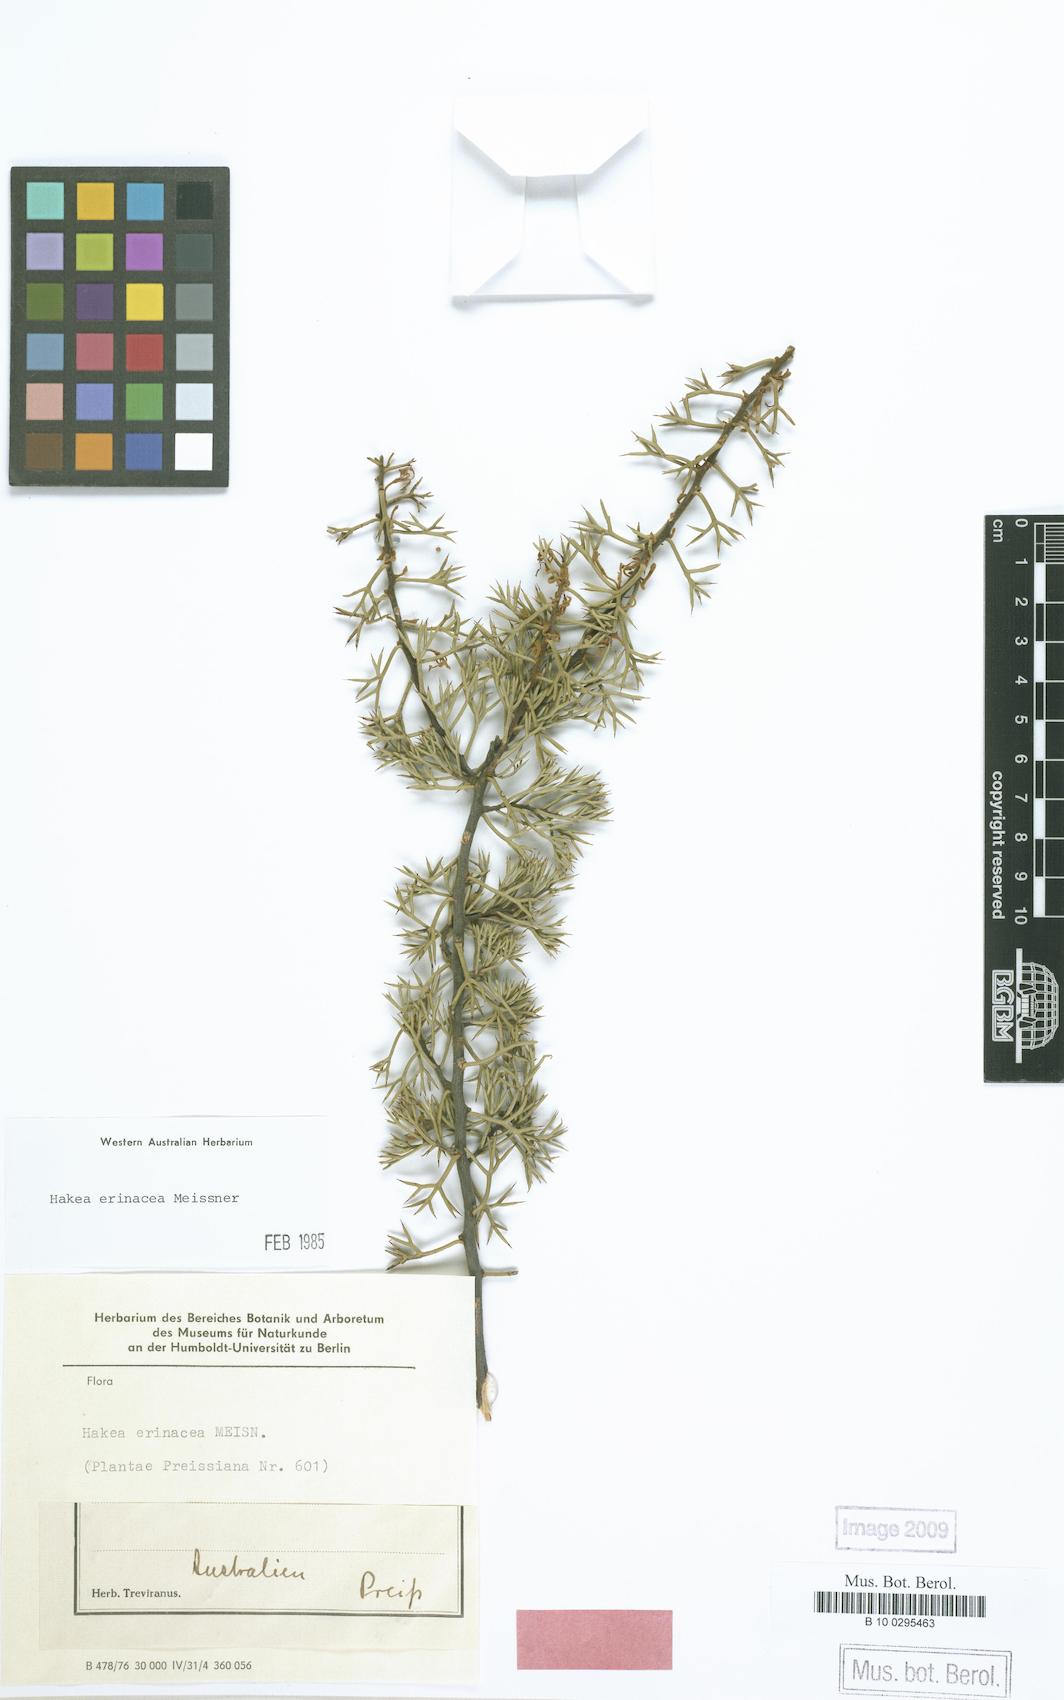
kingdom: Plantae
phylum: Tracheophyta
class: Magnoliopsida
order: Proteales
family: Proteaceae
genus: Hakea
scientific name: Hakea erinacea
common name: Hedgehog hakea
